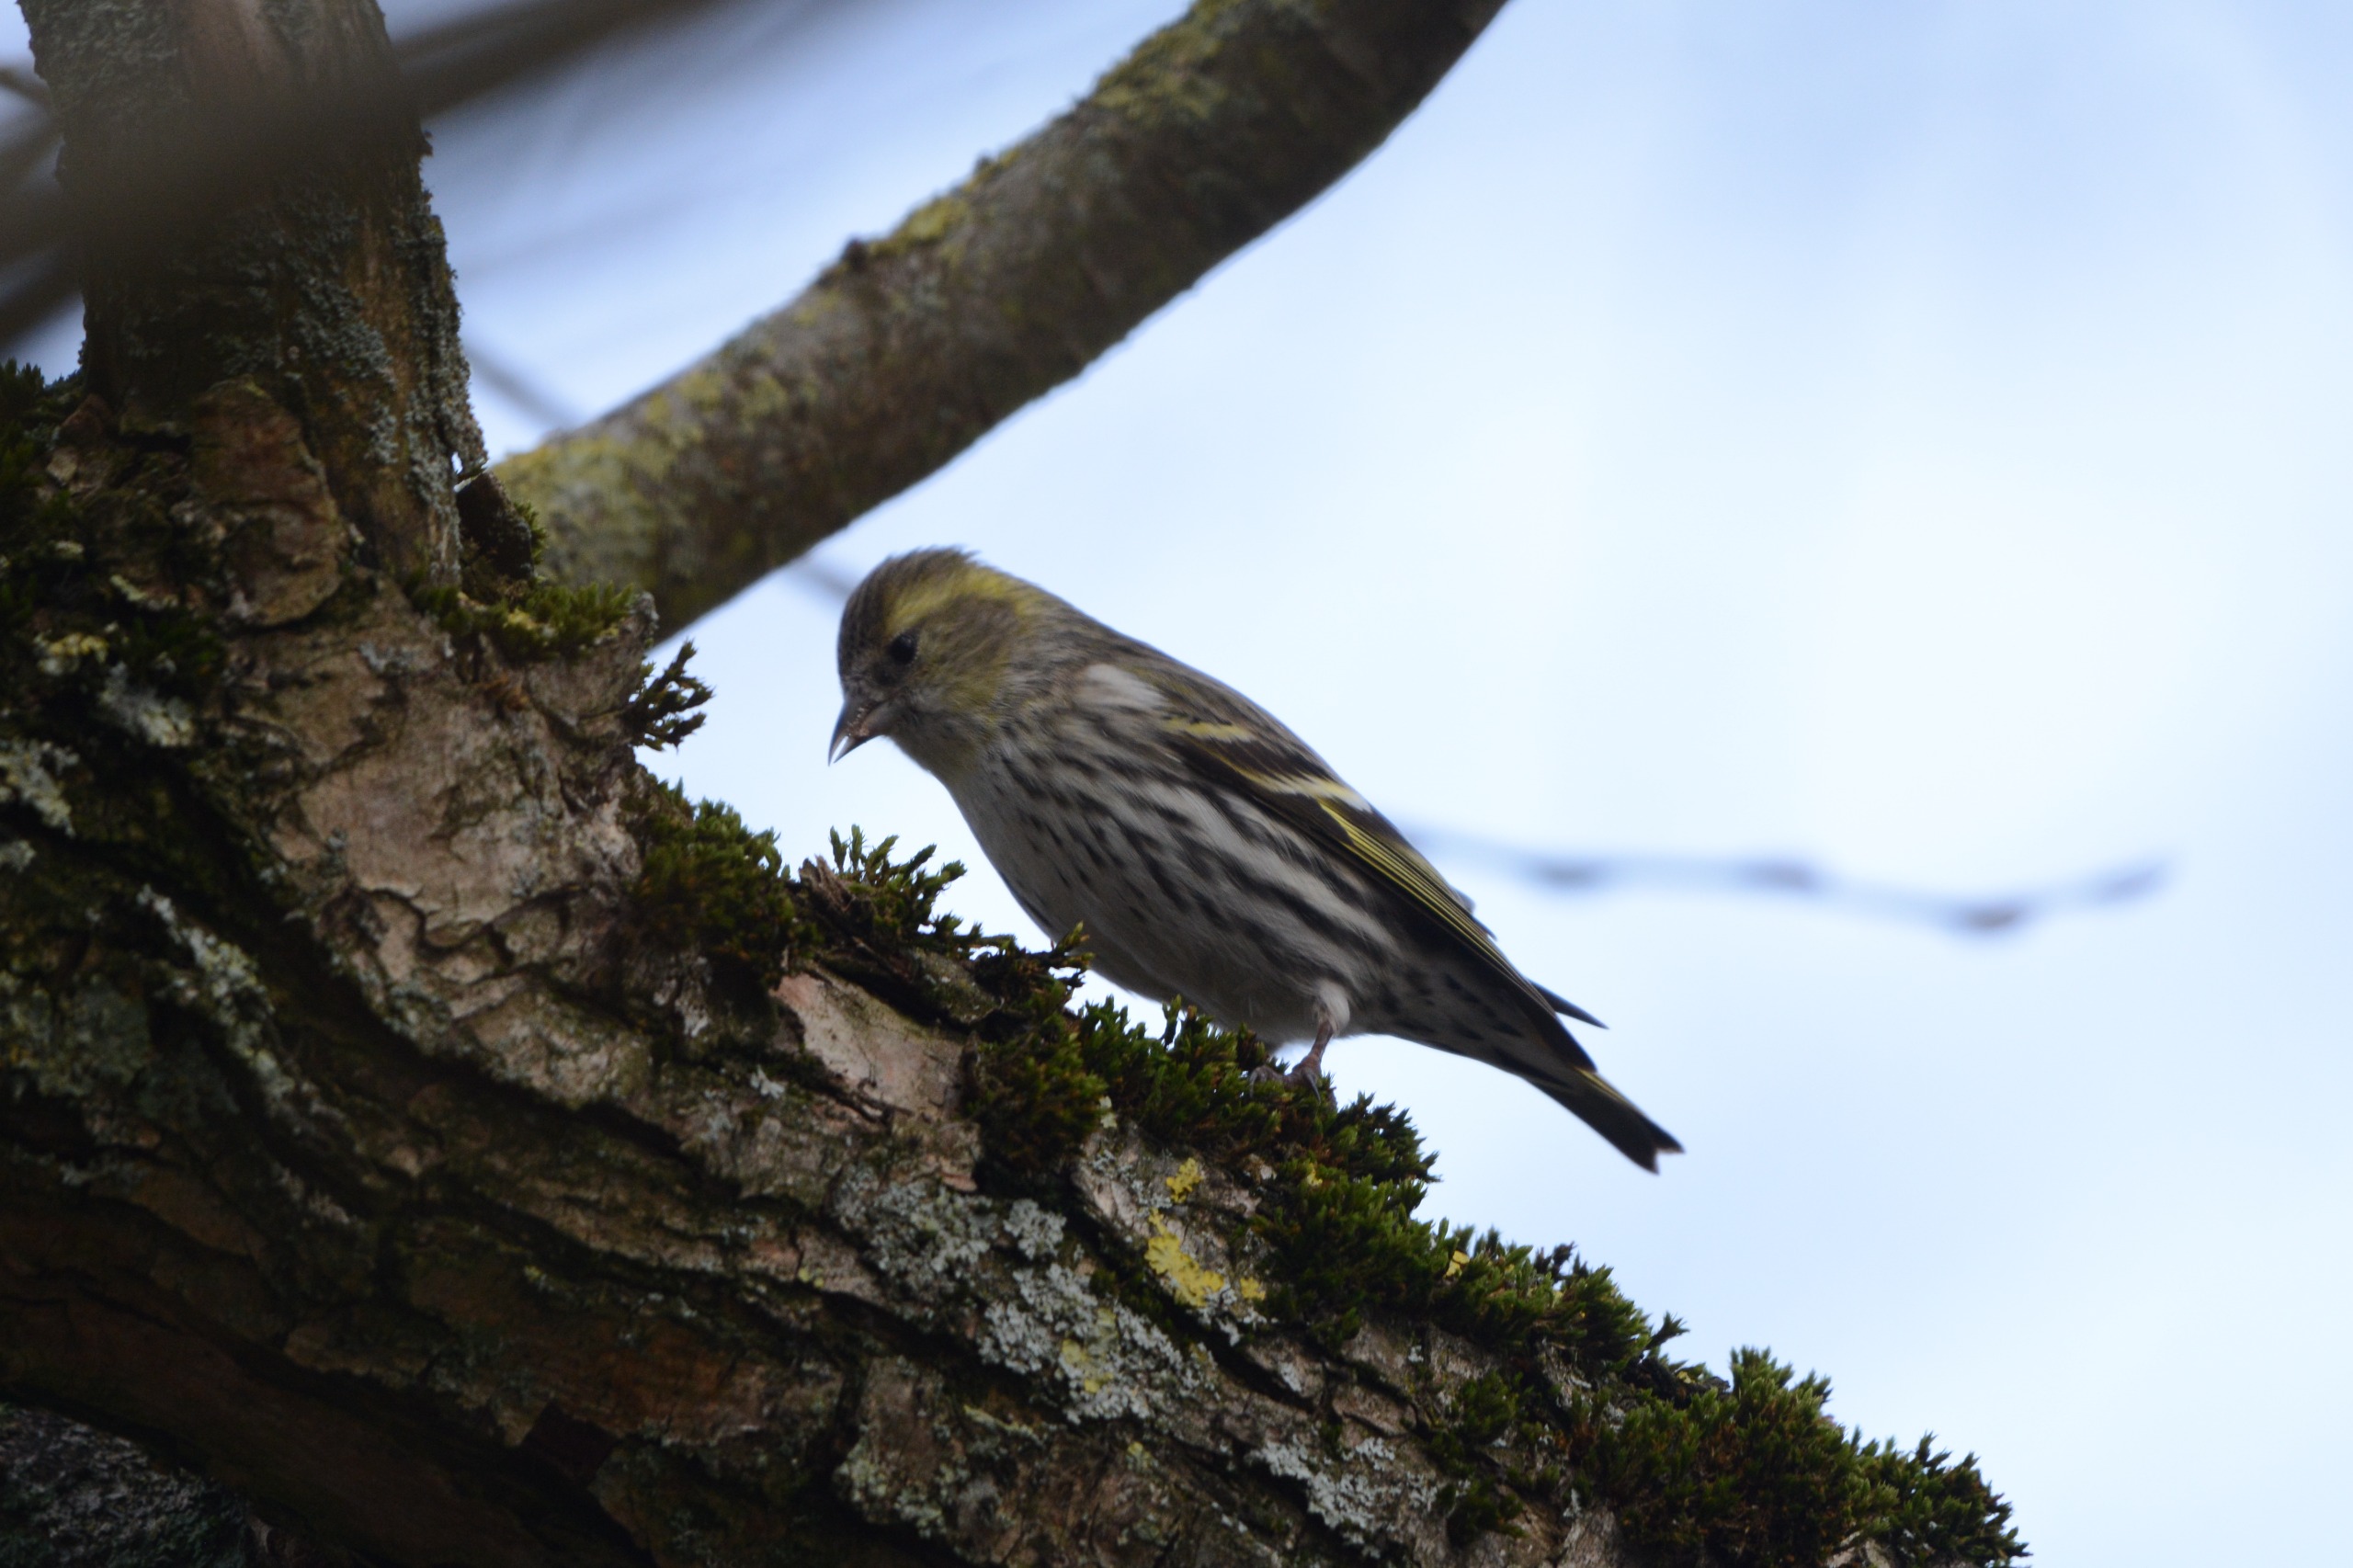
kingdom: Animalia
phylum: Chordata
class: Aves
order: Passeriformes
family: Fringillidae
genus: Spinus
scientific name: Spinus spinus
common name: Grønsisken
